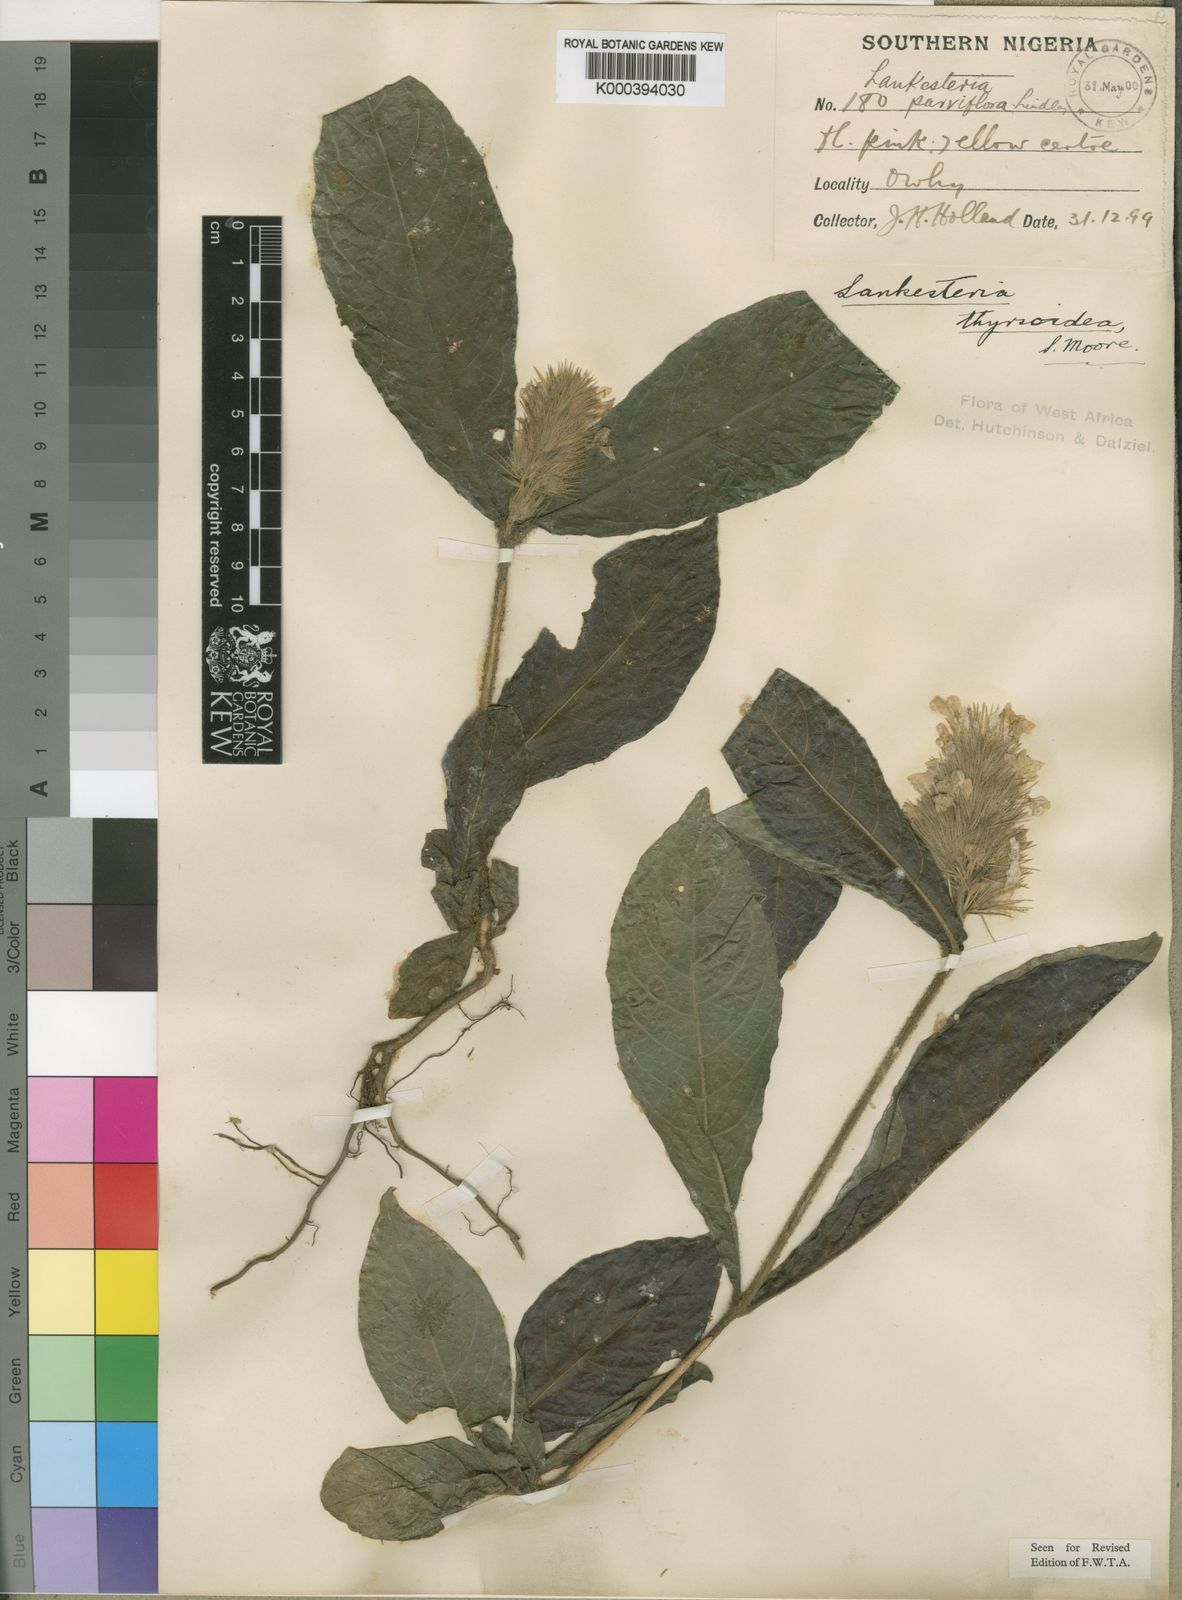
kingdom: Plantae
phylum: Tracheophyta
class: Magnoliopsida
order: Lamiales
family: Acanthaceae
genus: Lankesteria
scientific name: Lankesteria thyrsoidea
